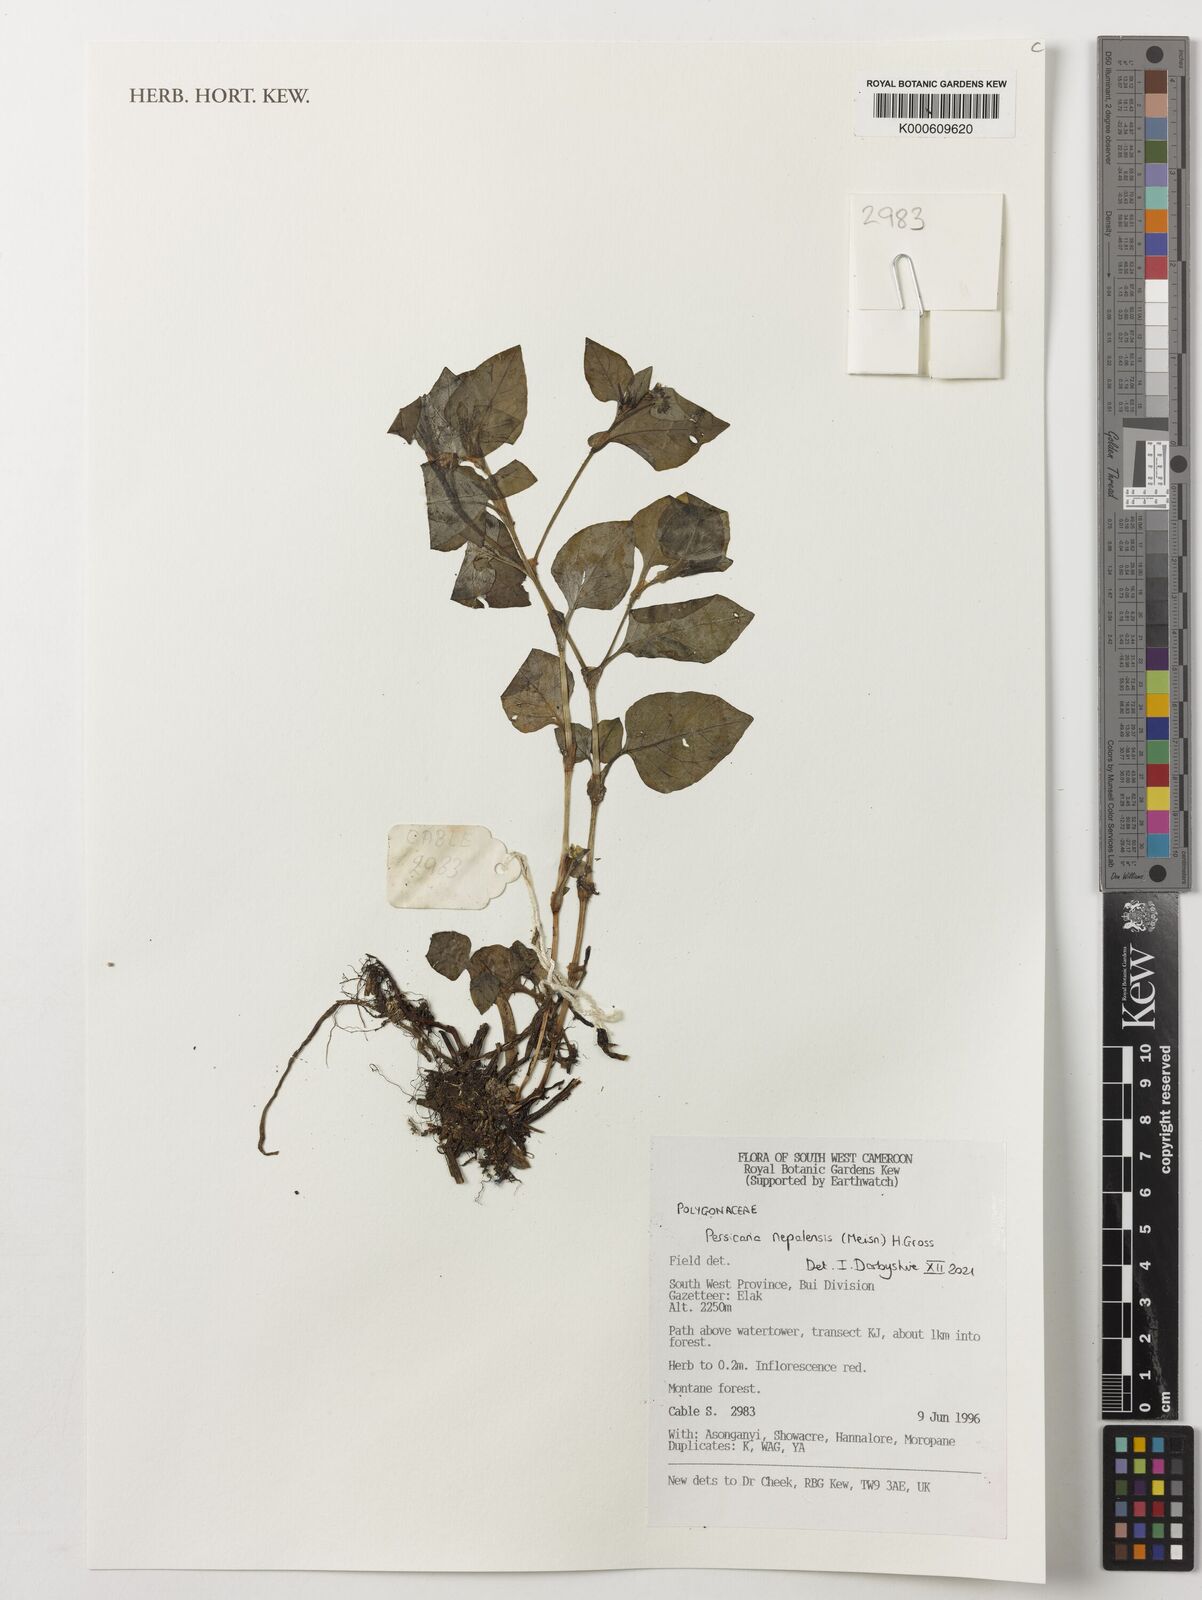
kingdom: Plantae
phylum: Tracheophyta
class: Magnoliopsida
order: Caryophyllales
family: Polygonaceae
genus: Persicaria
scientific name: Persicaria nepalensis
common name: Nepal persicaria
